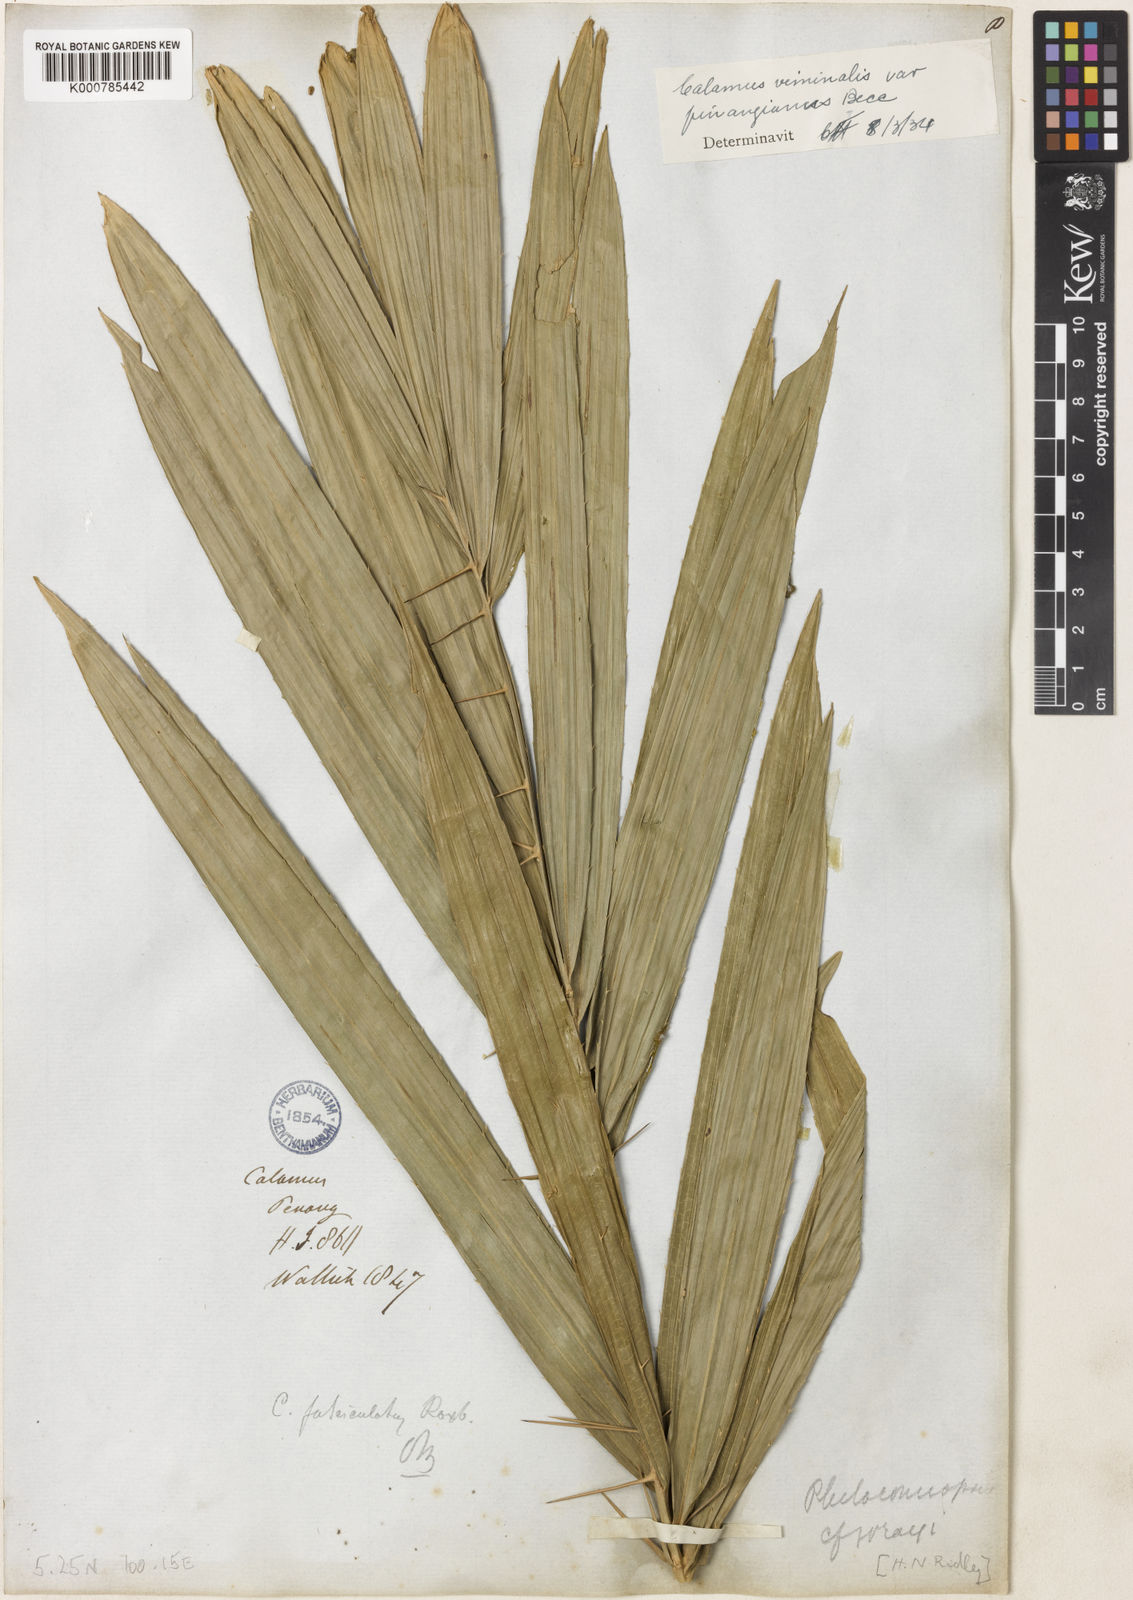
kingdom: Plantae
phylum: Tracheophyta
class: Liliopsida
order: Arecales
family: Arecaceae
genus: Calamus
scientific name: Calamus viminalis
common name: Osier-like rattan palm
